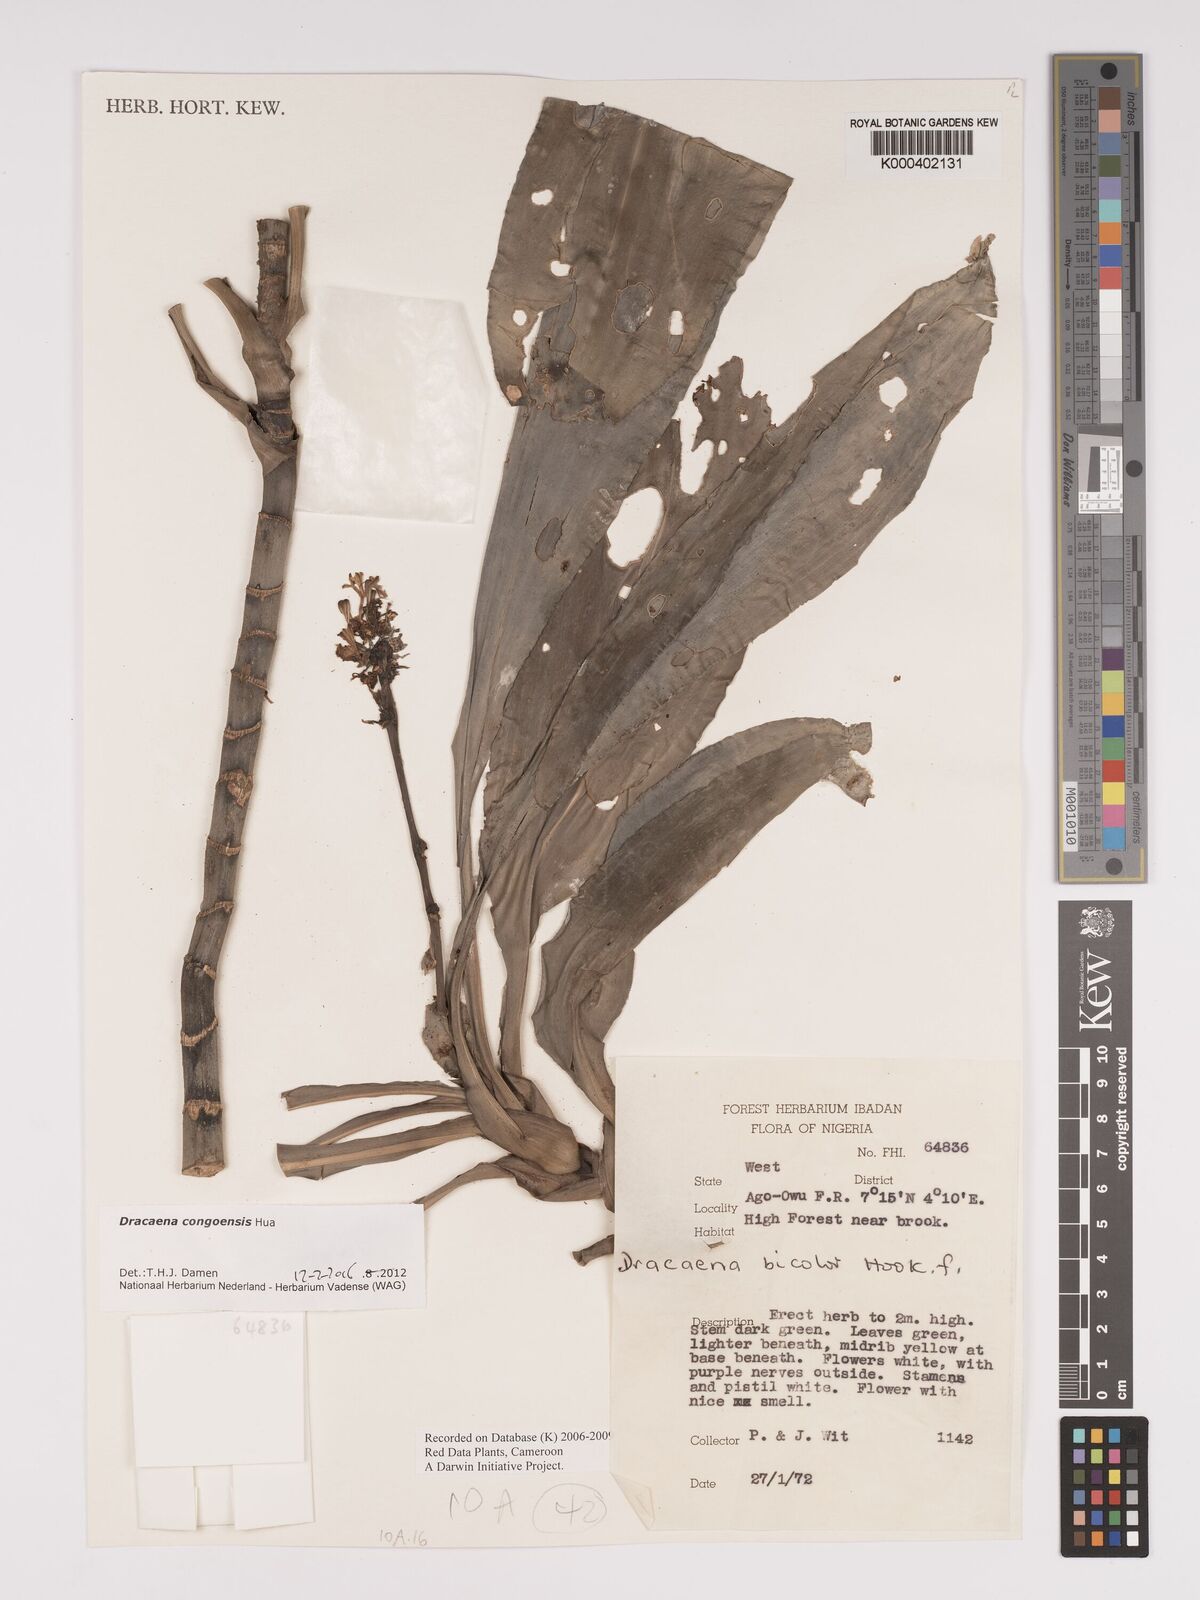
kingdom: Plantae
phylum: Tracheophyta
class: Liliopsida
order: Asparagales
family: Asparagaceae
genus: Dracaena
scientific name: Dracaena congoensis
